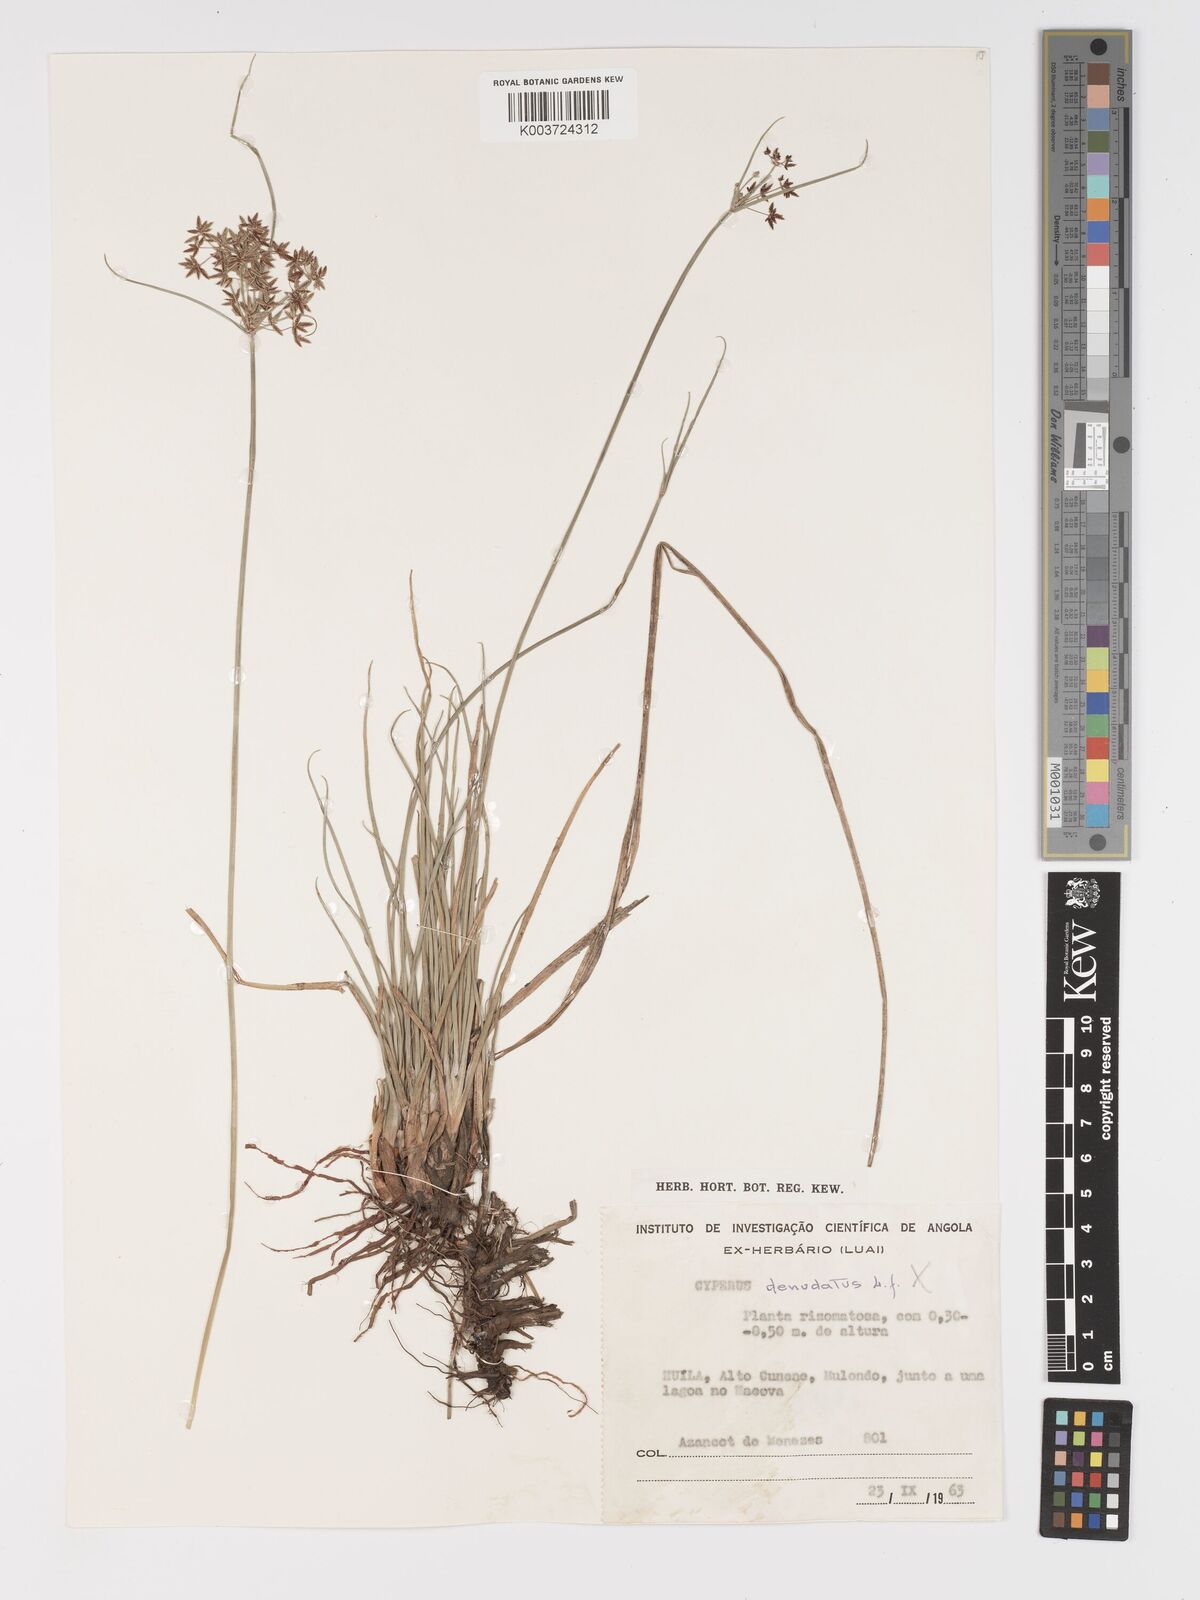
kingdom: Plantae
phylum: Tracheophyta
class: Liliopsida
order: Poales
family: Cyperaceae
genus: Cyperus
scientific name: Cyperus
